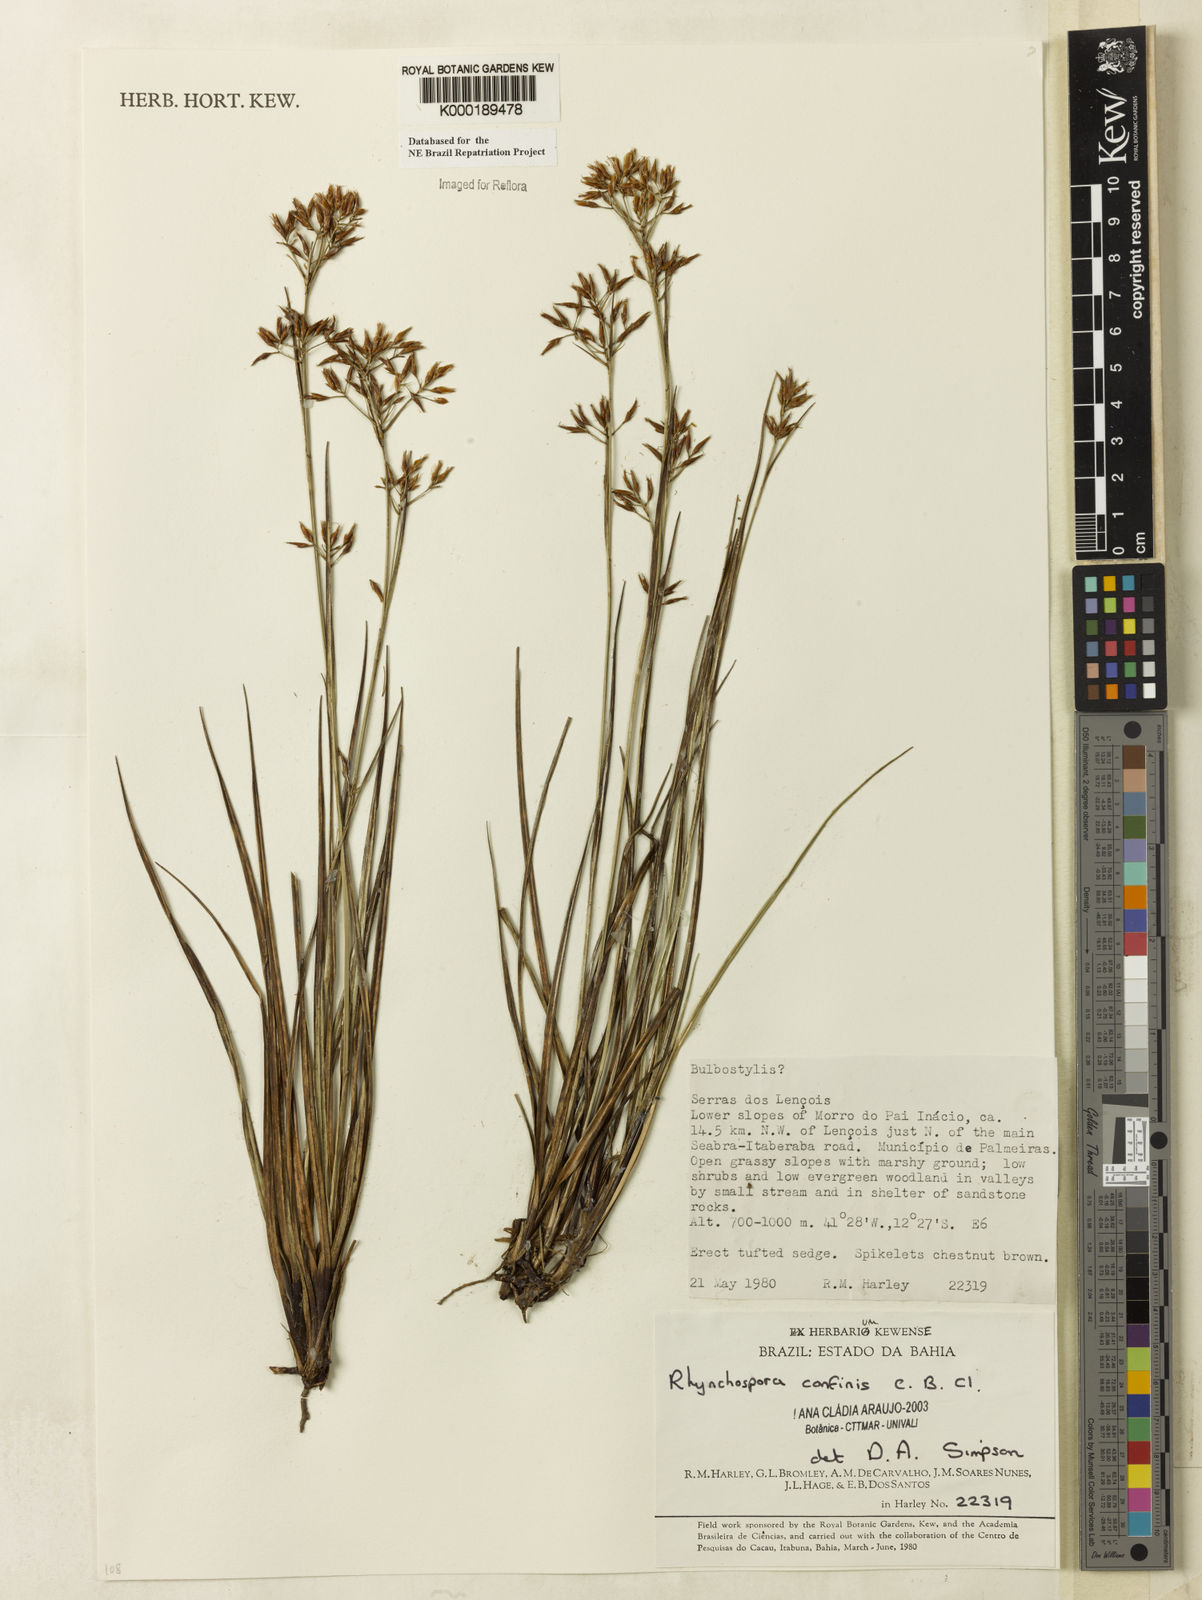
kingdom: Plantae
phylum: Tracheophyta
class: Liliopsida
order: Poales
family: Cyperaceae
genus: Rhynchospora
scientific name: Rhynchospora tenuis
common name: Quill beaksedge
